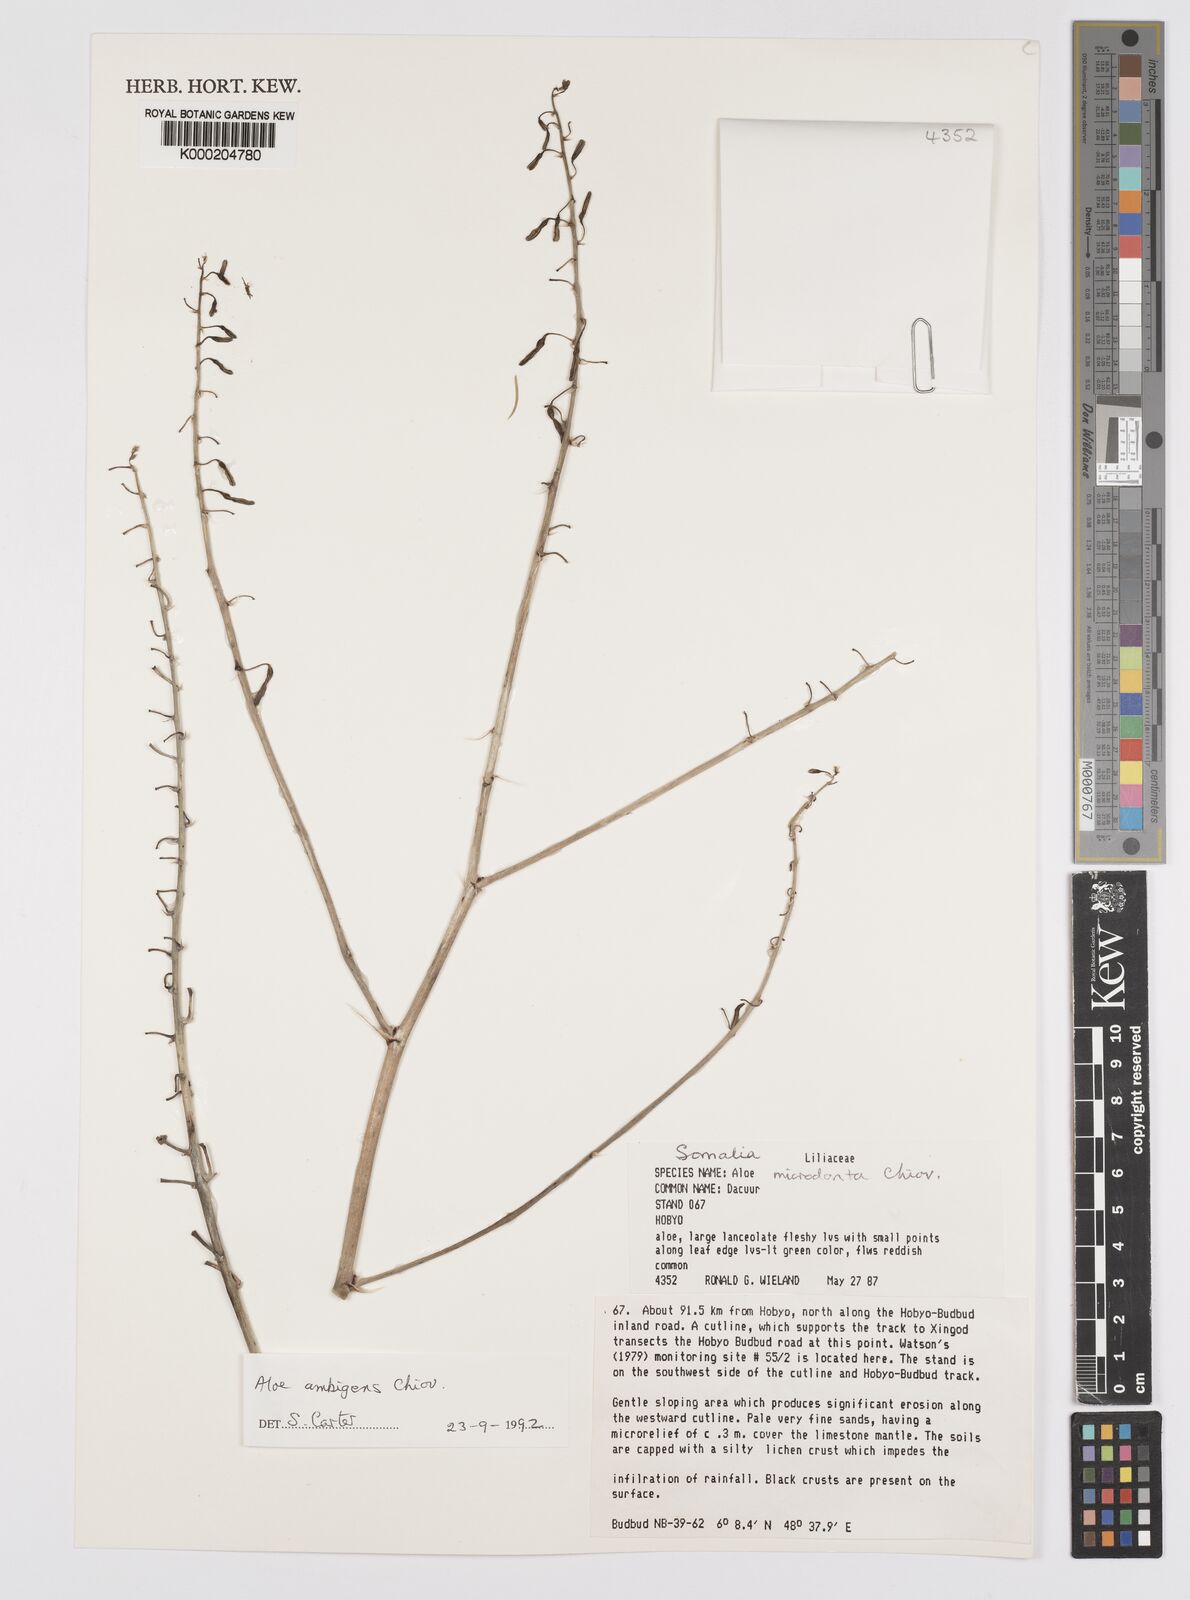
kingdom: Plantae
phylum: Tracheophyta
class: Liliopsida
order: Asparagales
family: Asphodelaceae
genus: Aloe
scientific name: Aloe ambigens
